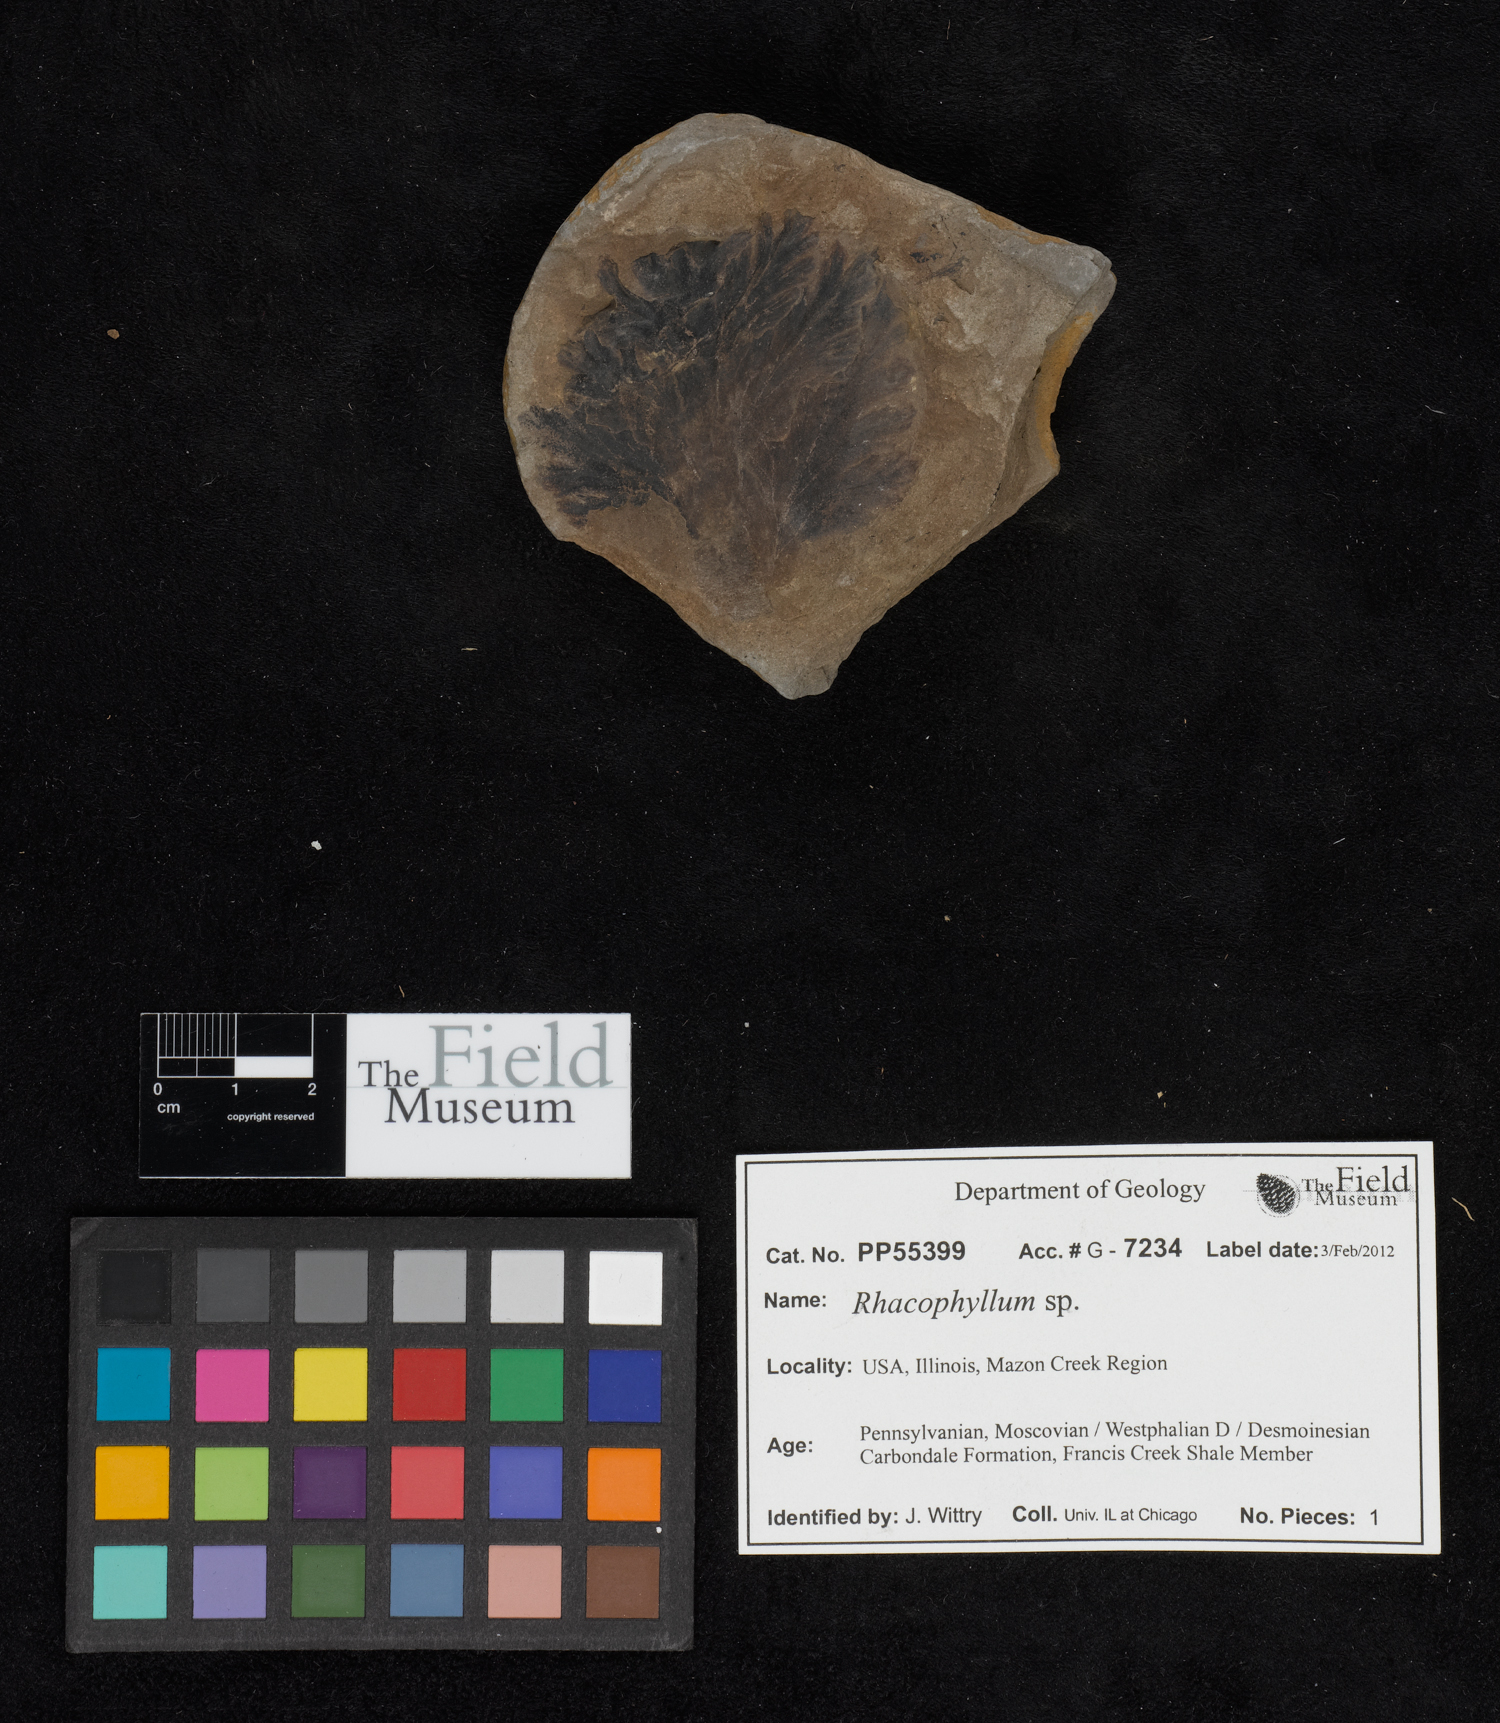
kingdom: Plantae
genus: Rhacophyllum
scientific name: Rhacophyllum
